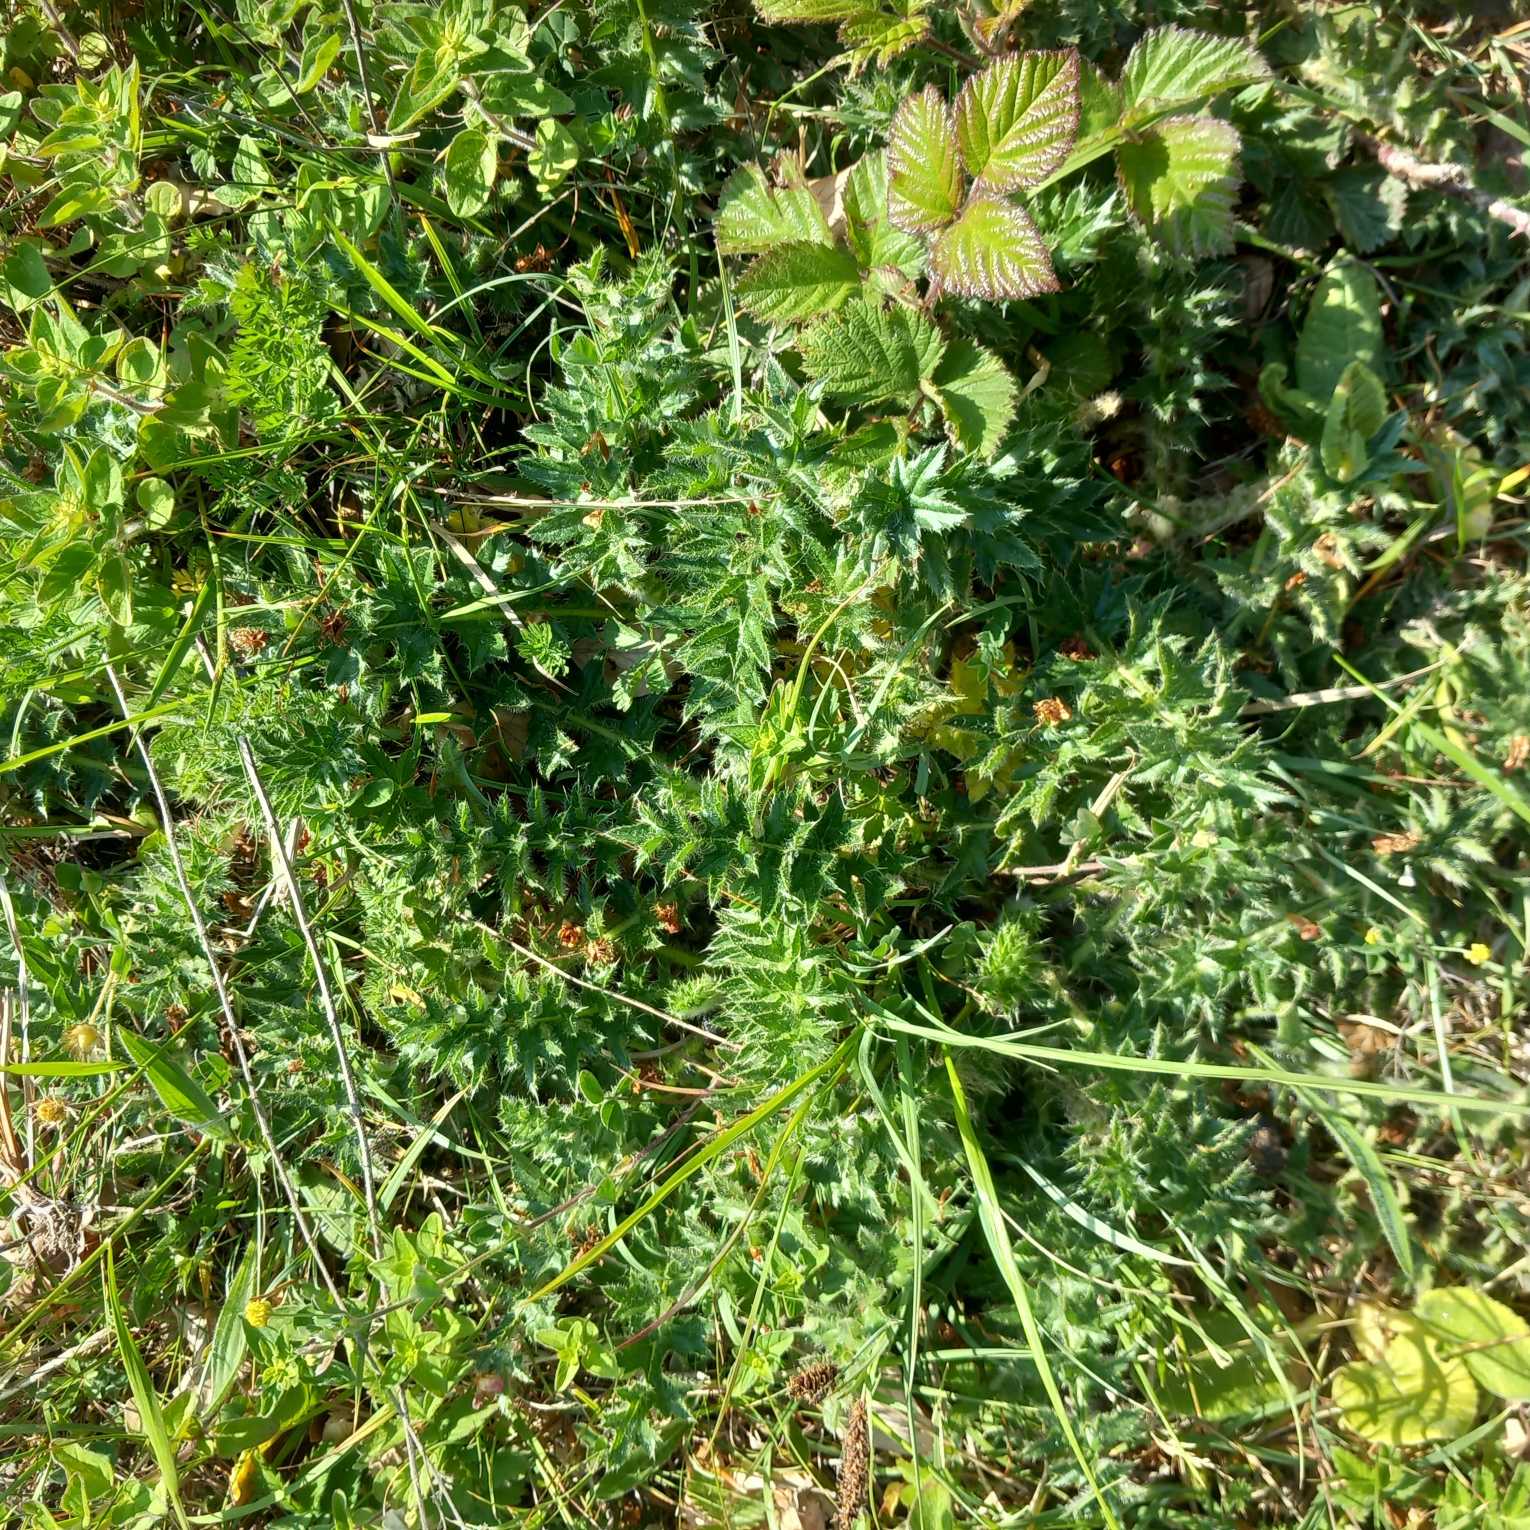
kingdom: Plantae
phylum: Tracheophyta
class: Magnoliopsida
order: Asterales
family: Asteraceae
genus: Cirsium
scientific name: Cirsium acaule
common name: Lav tidsel
